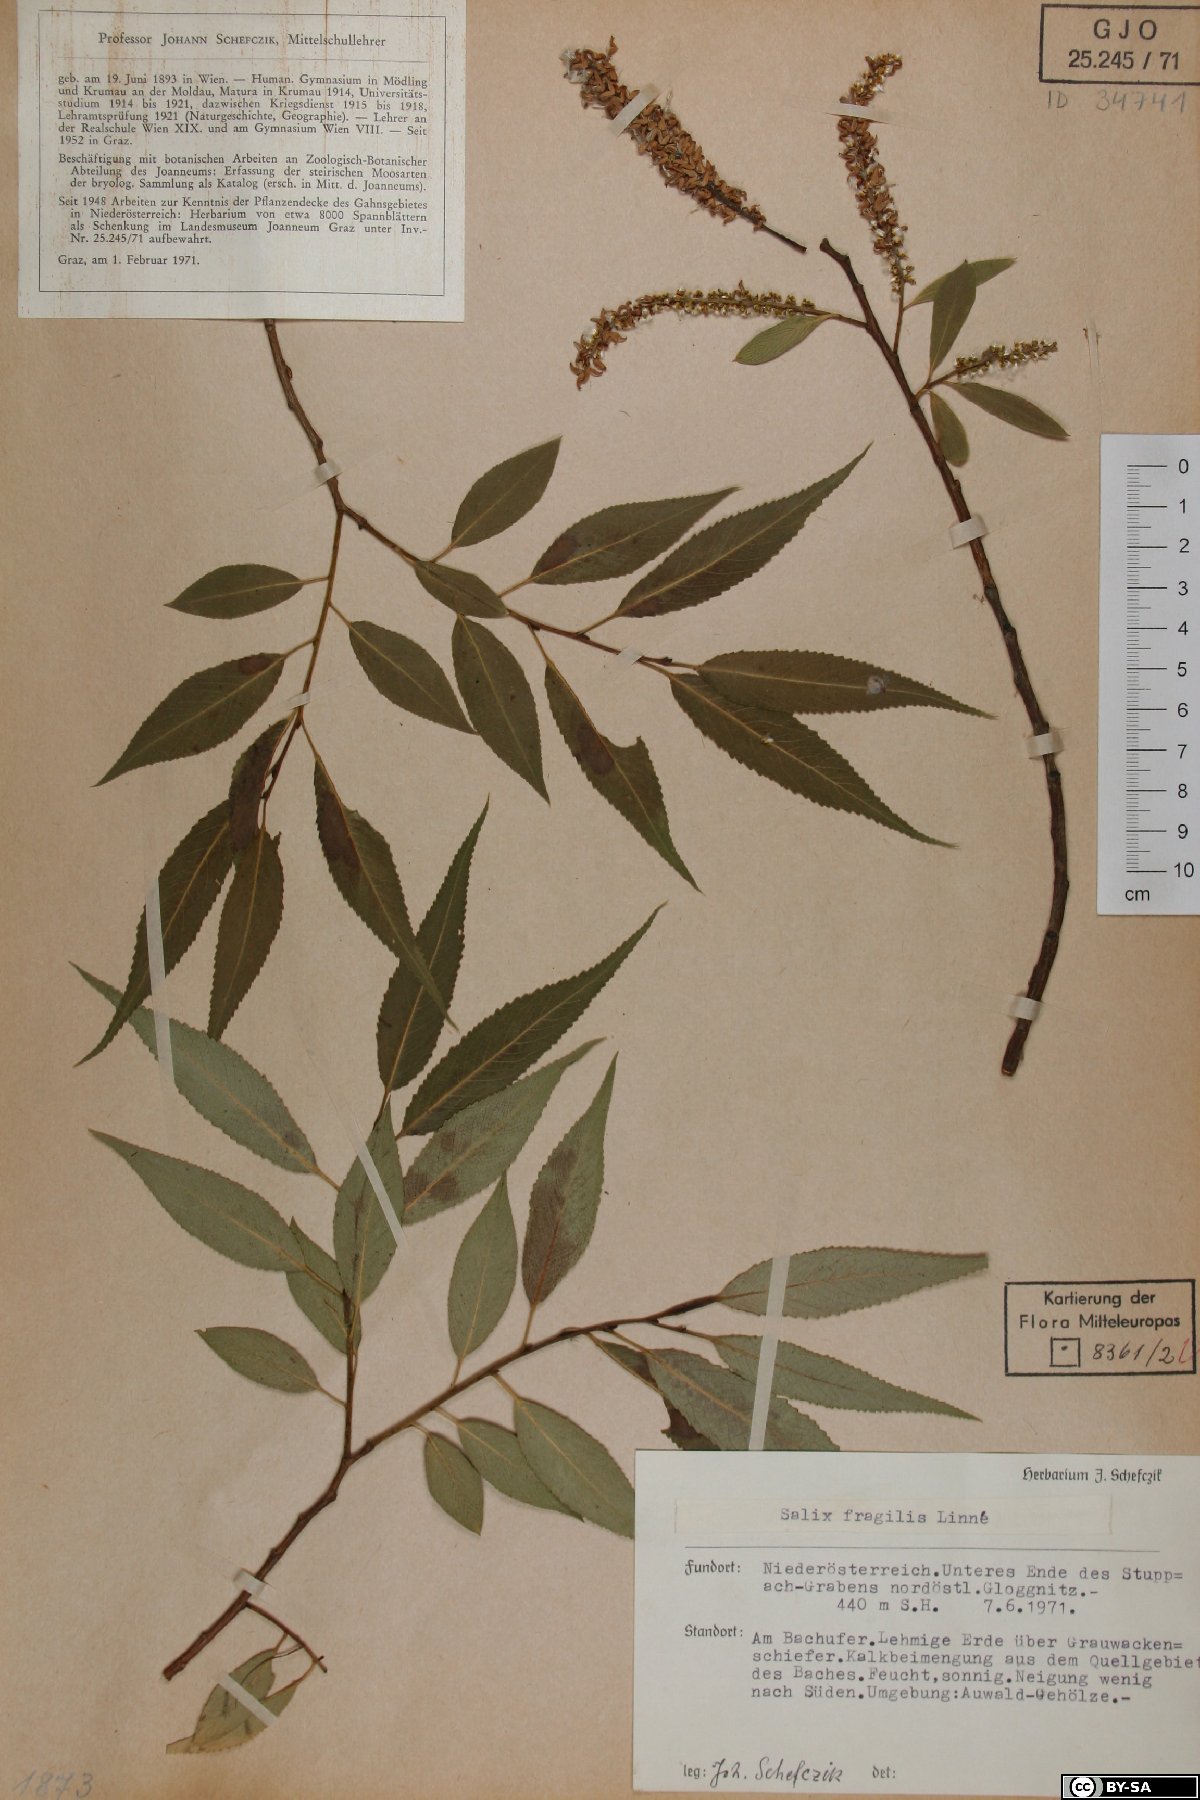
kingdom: Plantae
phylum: Tracheophyta
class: Magnoliopsida
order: Malpighiales
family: Salicaceae
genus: Salix
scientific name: Salix fragilis
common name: Crack willow
